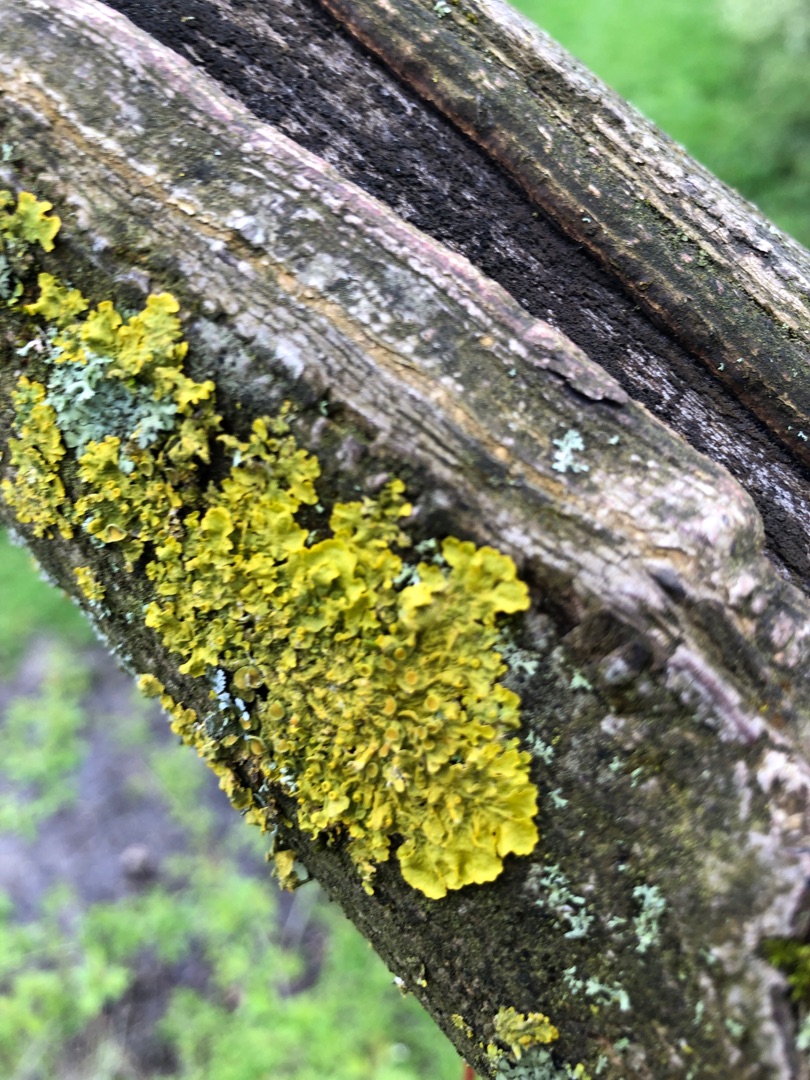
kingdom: Fungi
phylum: Ascomycota
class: Lecanoromycetes
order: Teloschistales
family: Teloschistaceae
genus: Xanthoria
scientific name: Xanthoria parietina
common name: Almindelig væggelav
